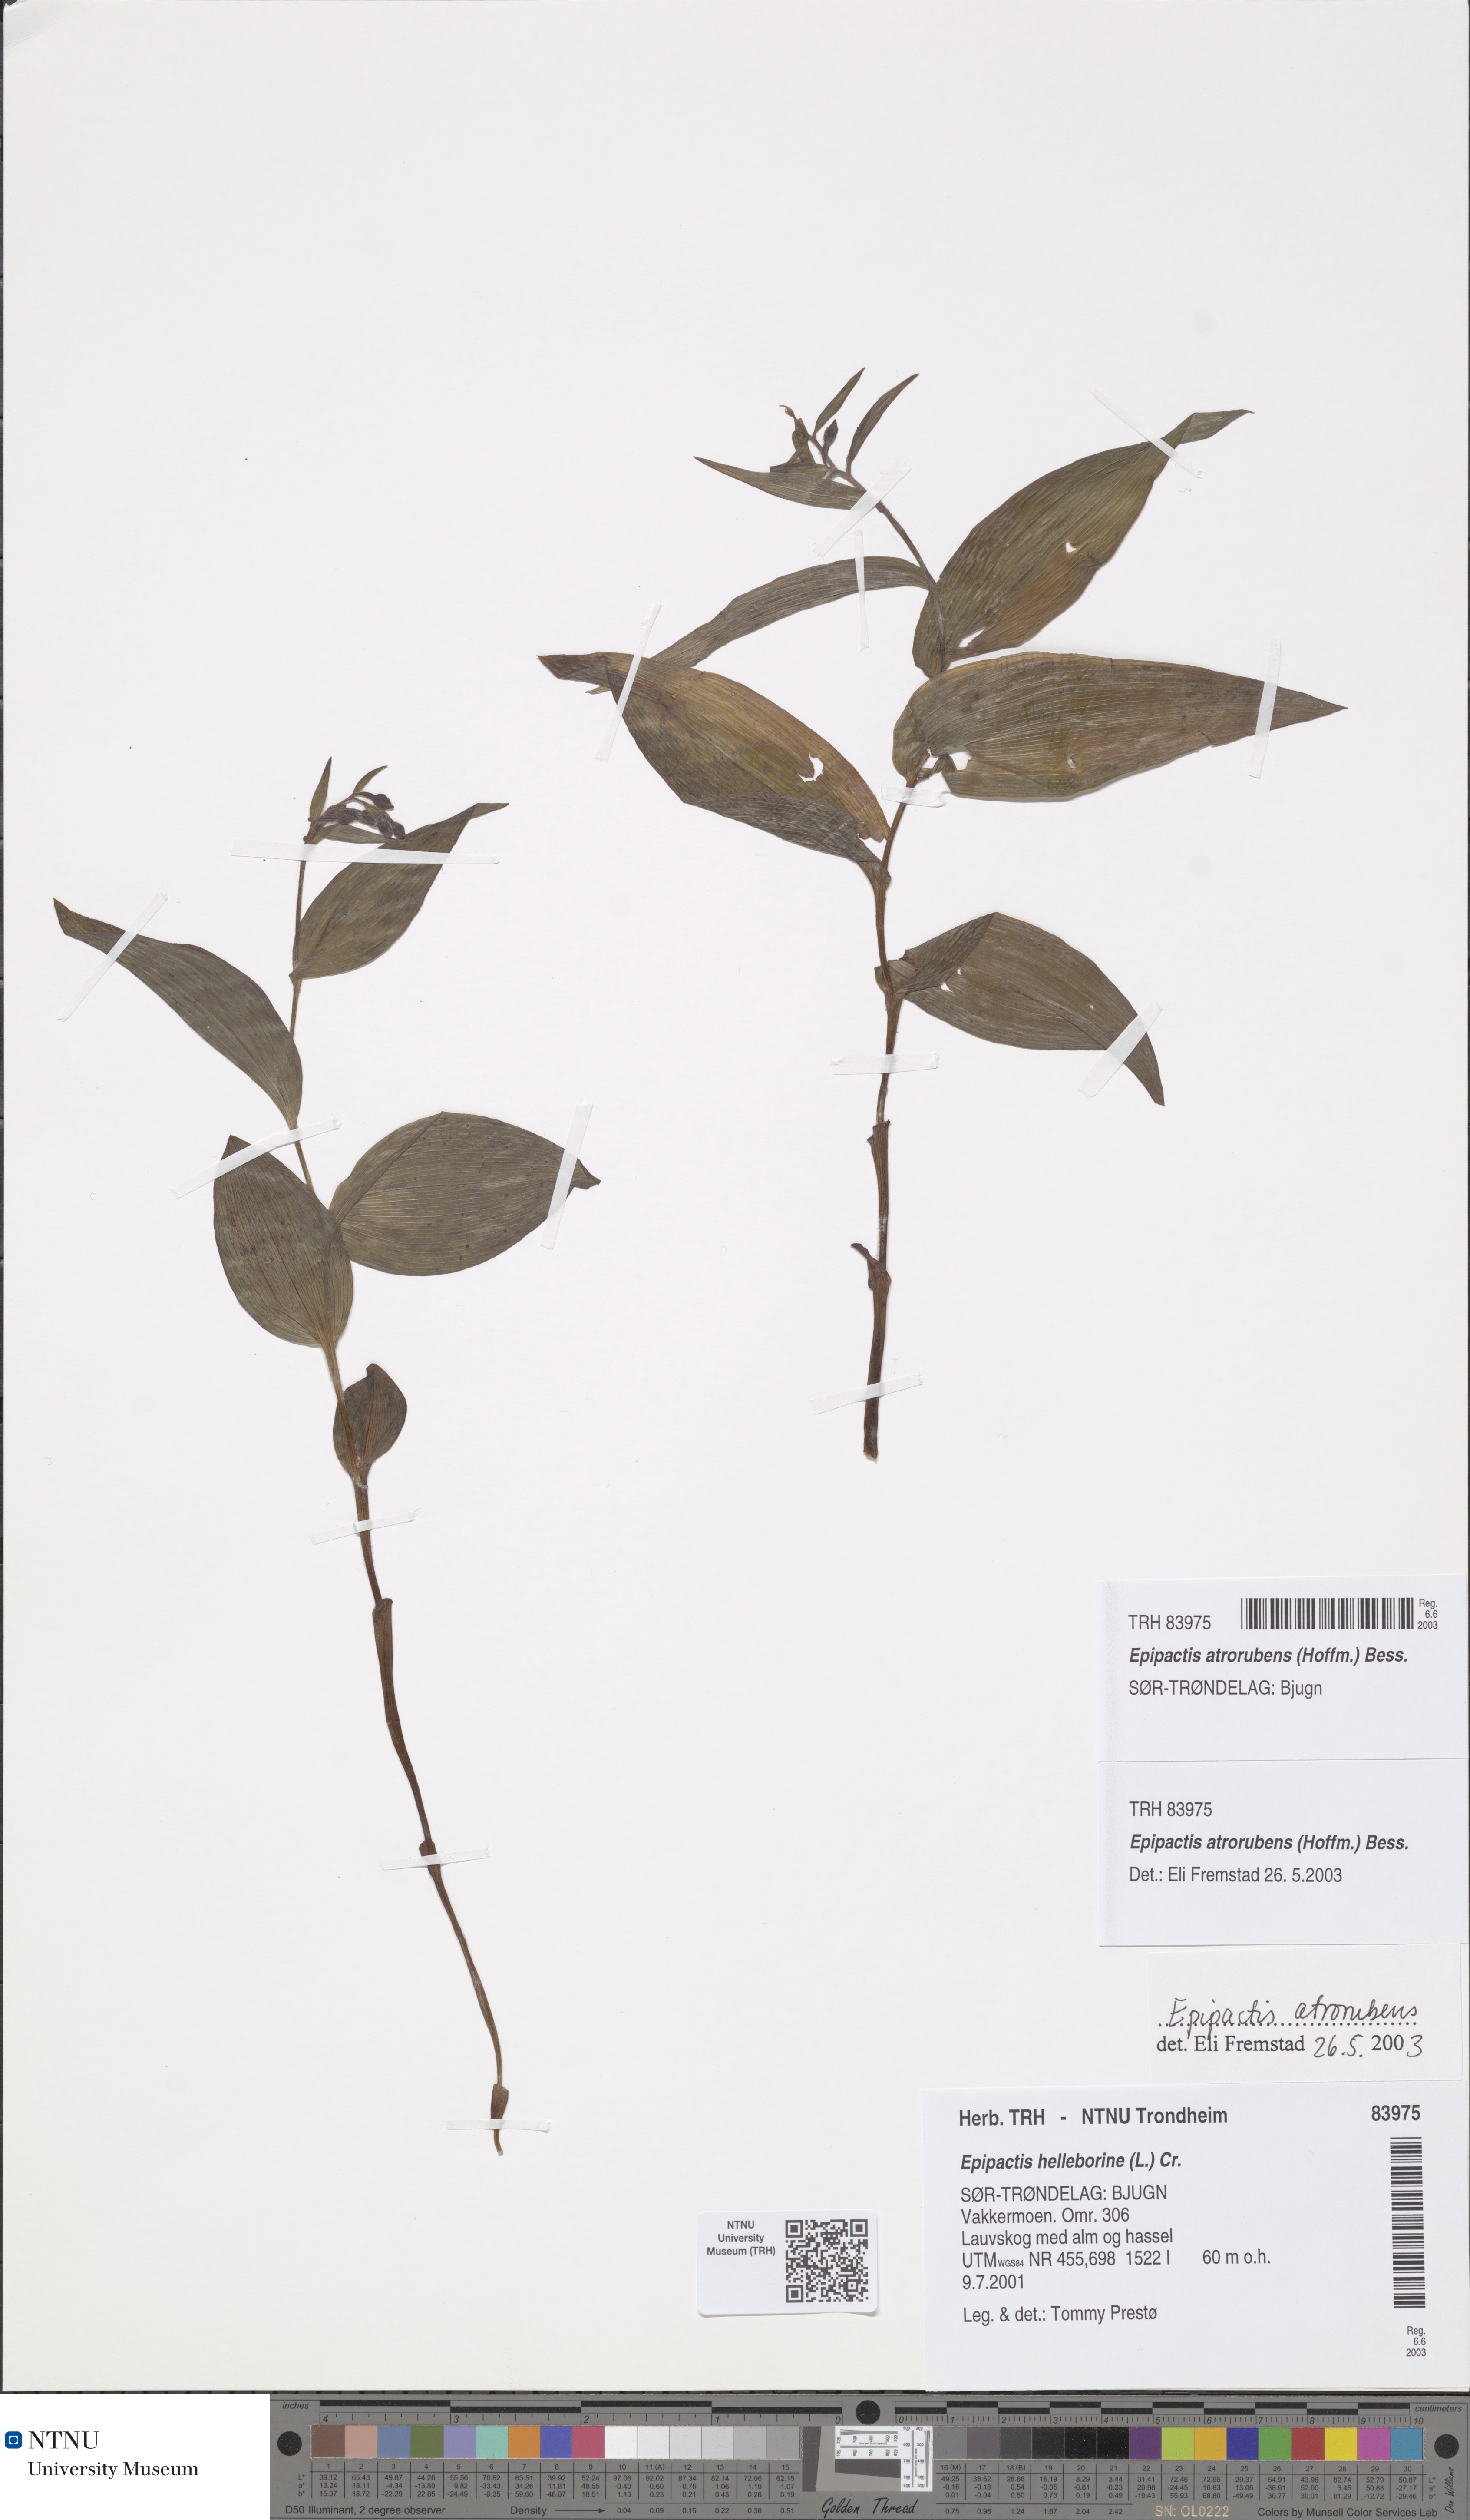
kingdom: Plantae
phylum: Tracheophyta
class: Liliopsida
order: Asparagales
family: Orchidaceae
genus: Epipactis
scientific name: Epipactis atrorubens
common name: Dark-red helleborine
